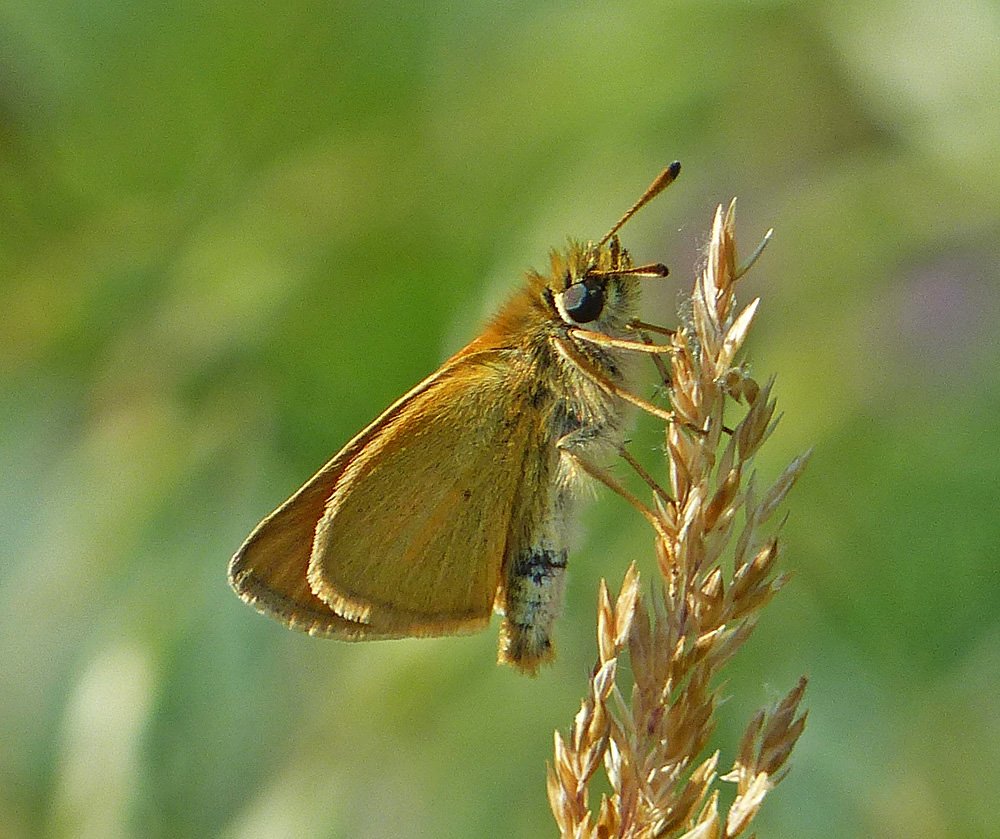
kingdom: Animalia
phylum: Arthropoda
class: Insecta
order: Lepidoptera
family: Hesperiidae
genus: Thymelicus
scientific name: Thymelicus lineola
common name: European Skipper
